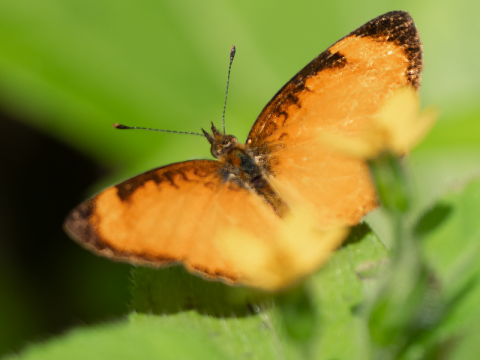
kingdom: Animalia
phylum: Arthropoda
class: Insecta
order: Lepidoptera
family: Nymphalidae
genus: Tegosa
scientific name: Tegosa anieta
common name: Black-bordered Crescent
